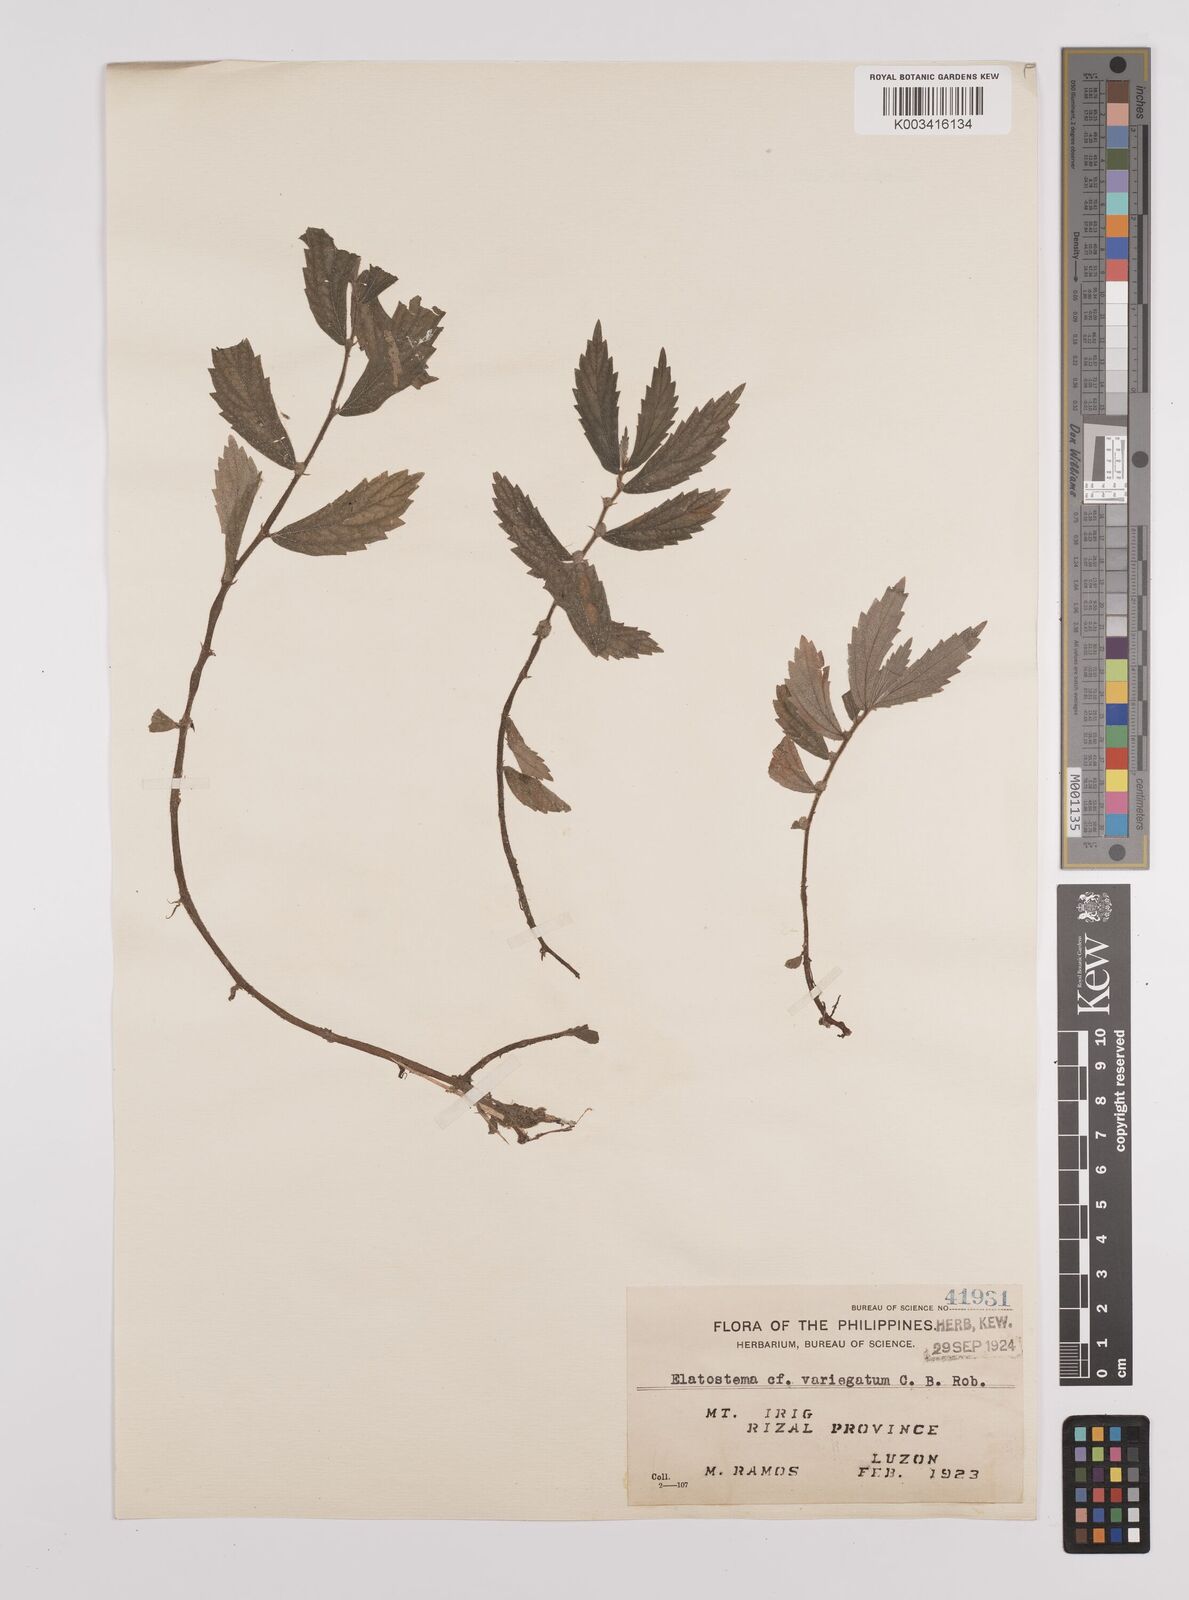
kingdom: Plantae
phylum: Tracheophyta
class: Magnoliopsida
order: Rosales
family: Urticaceae
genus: Elatostema
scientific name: Elatostema variegatum
